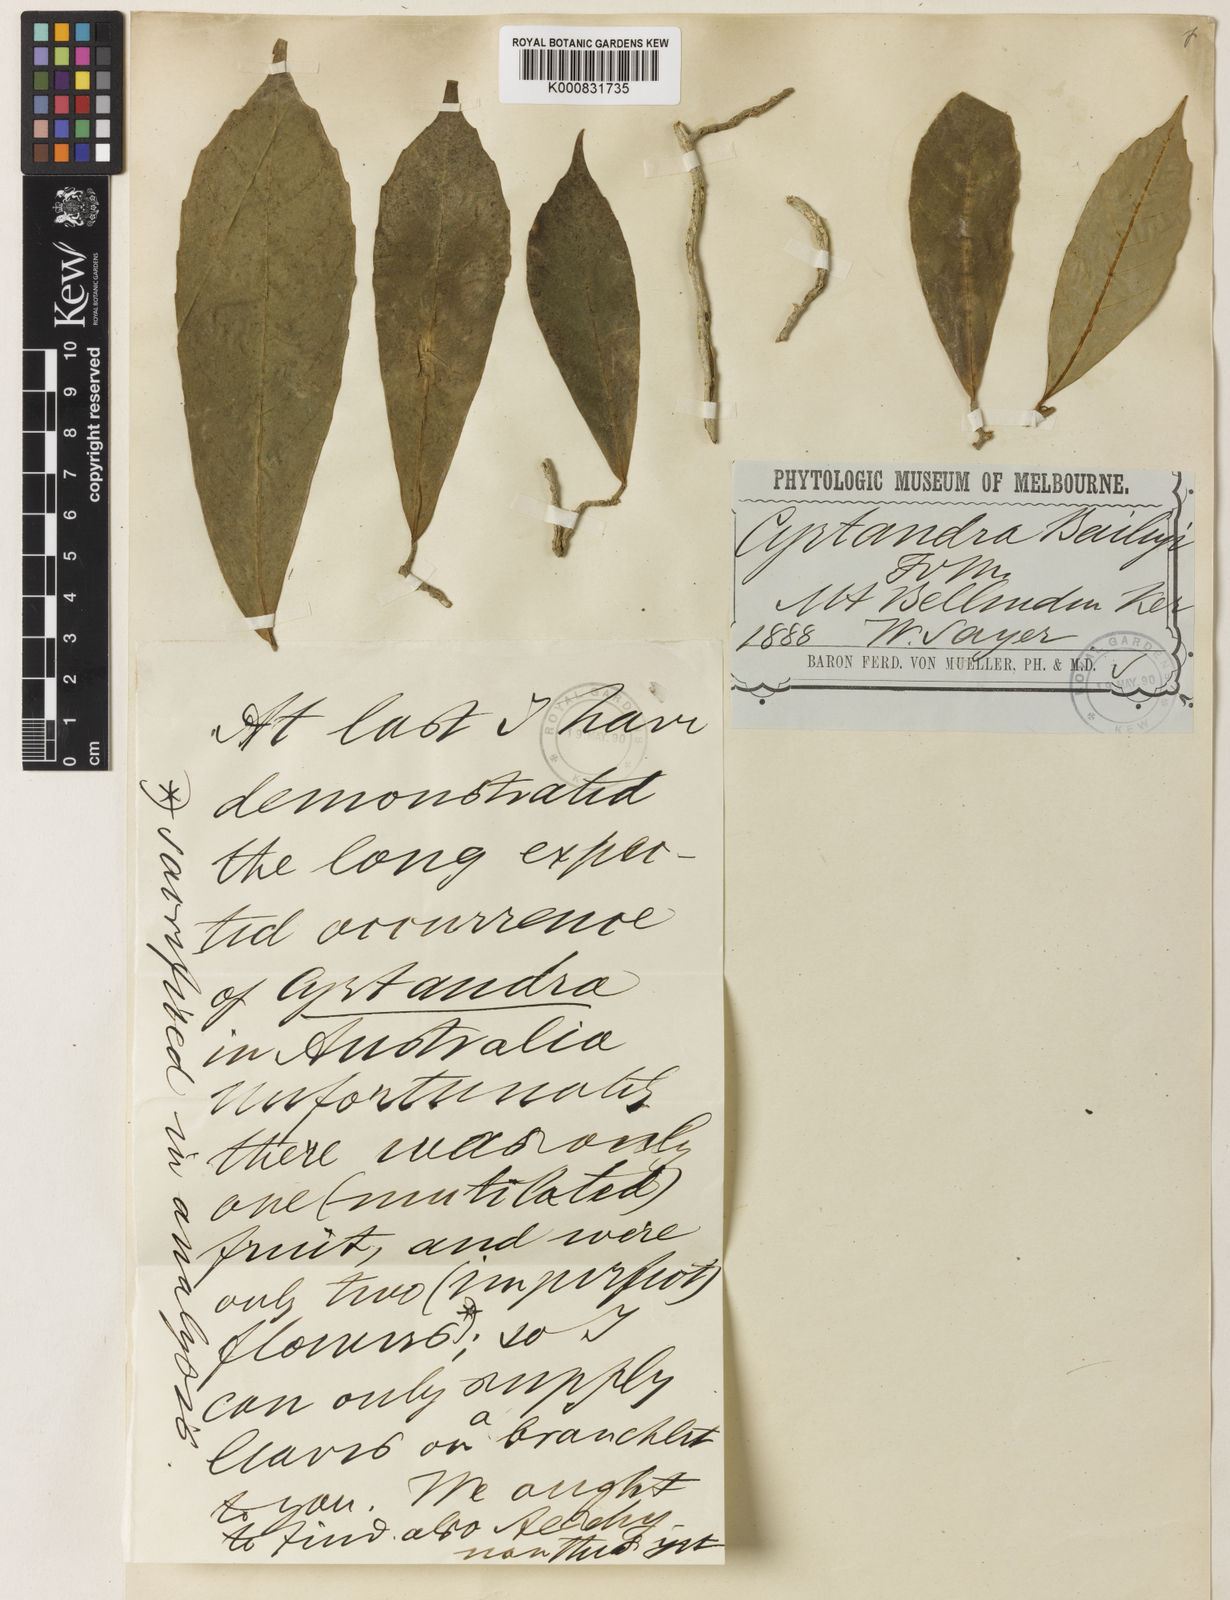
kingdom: Plantae
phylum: Tracheophyta
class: Magnoliopsida
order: Lamiales
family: Gesneriaceae
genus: Cyrtandra
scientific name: Cyrtandra baileyi
